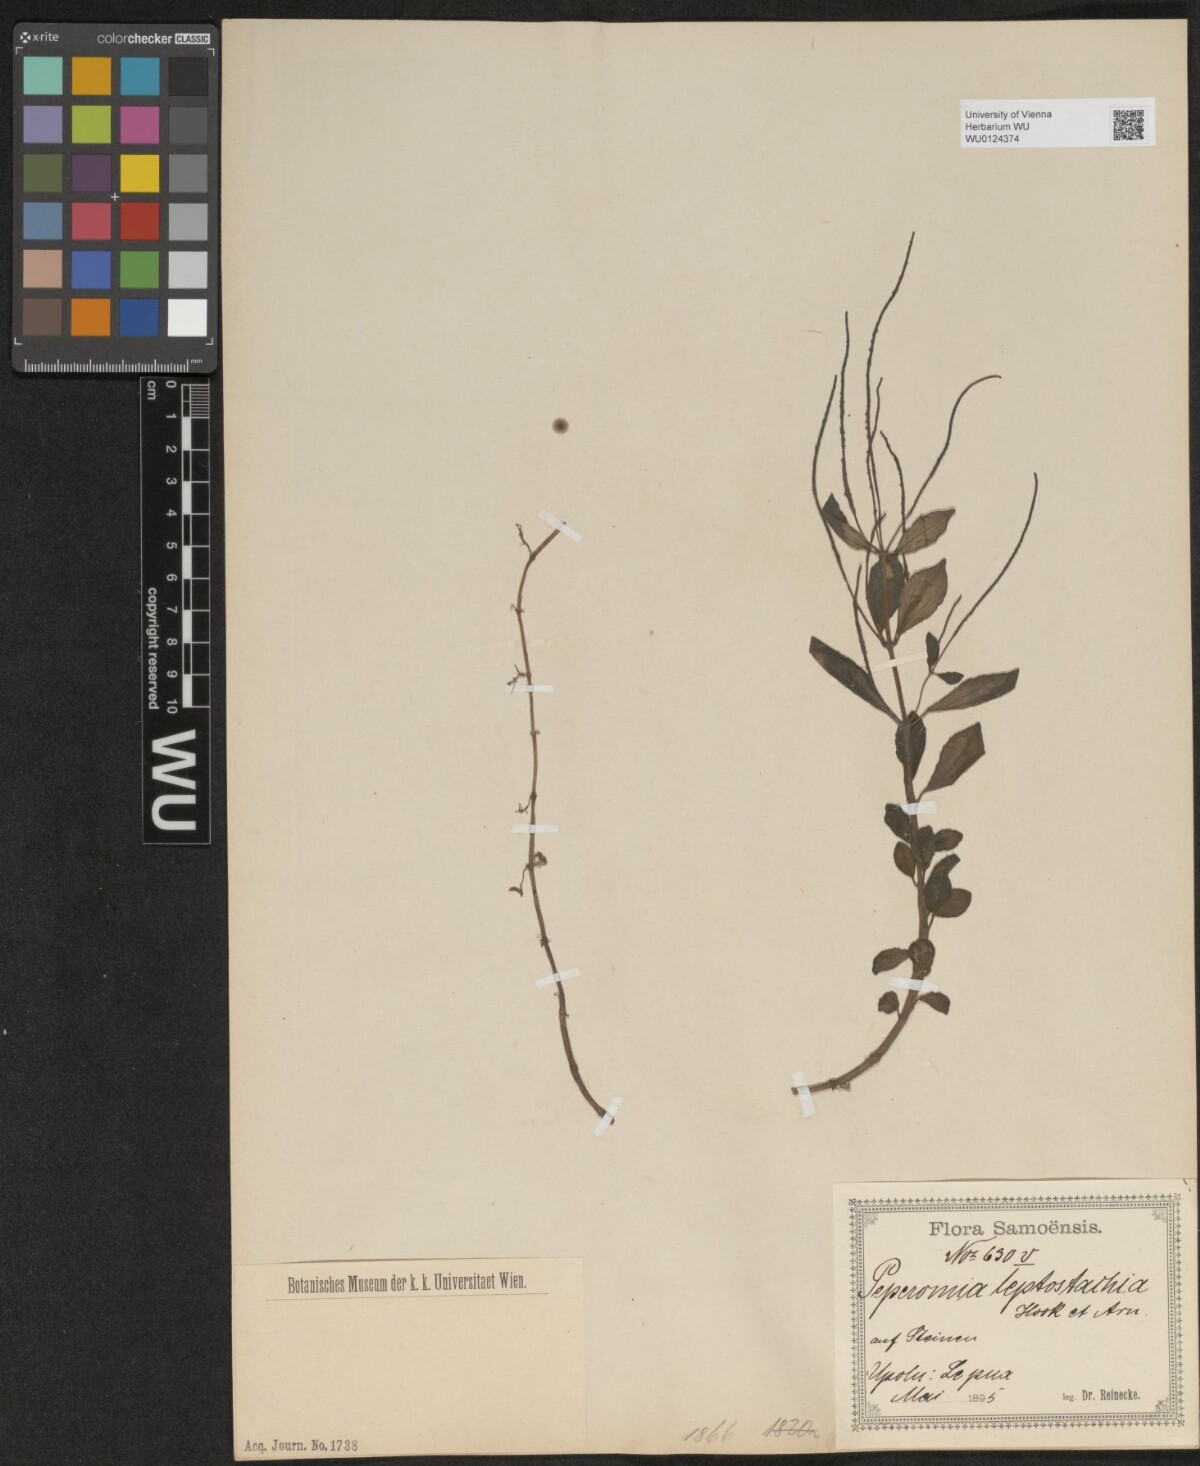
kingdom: Plantae
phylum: Tracheophyta
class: Magnoliopsida
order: Piperales
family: Piperaceae
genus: Peperomia
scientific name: Peperomia leptostachya
